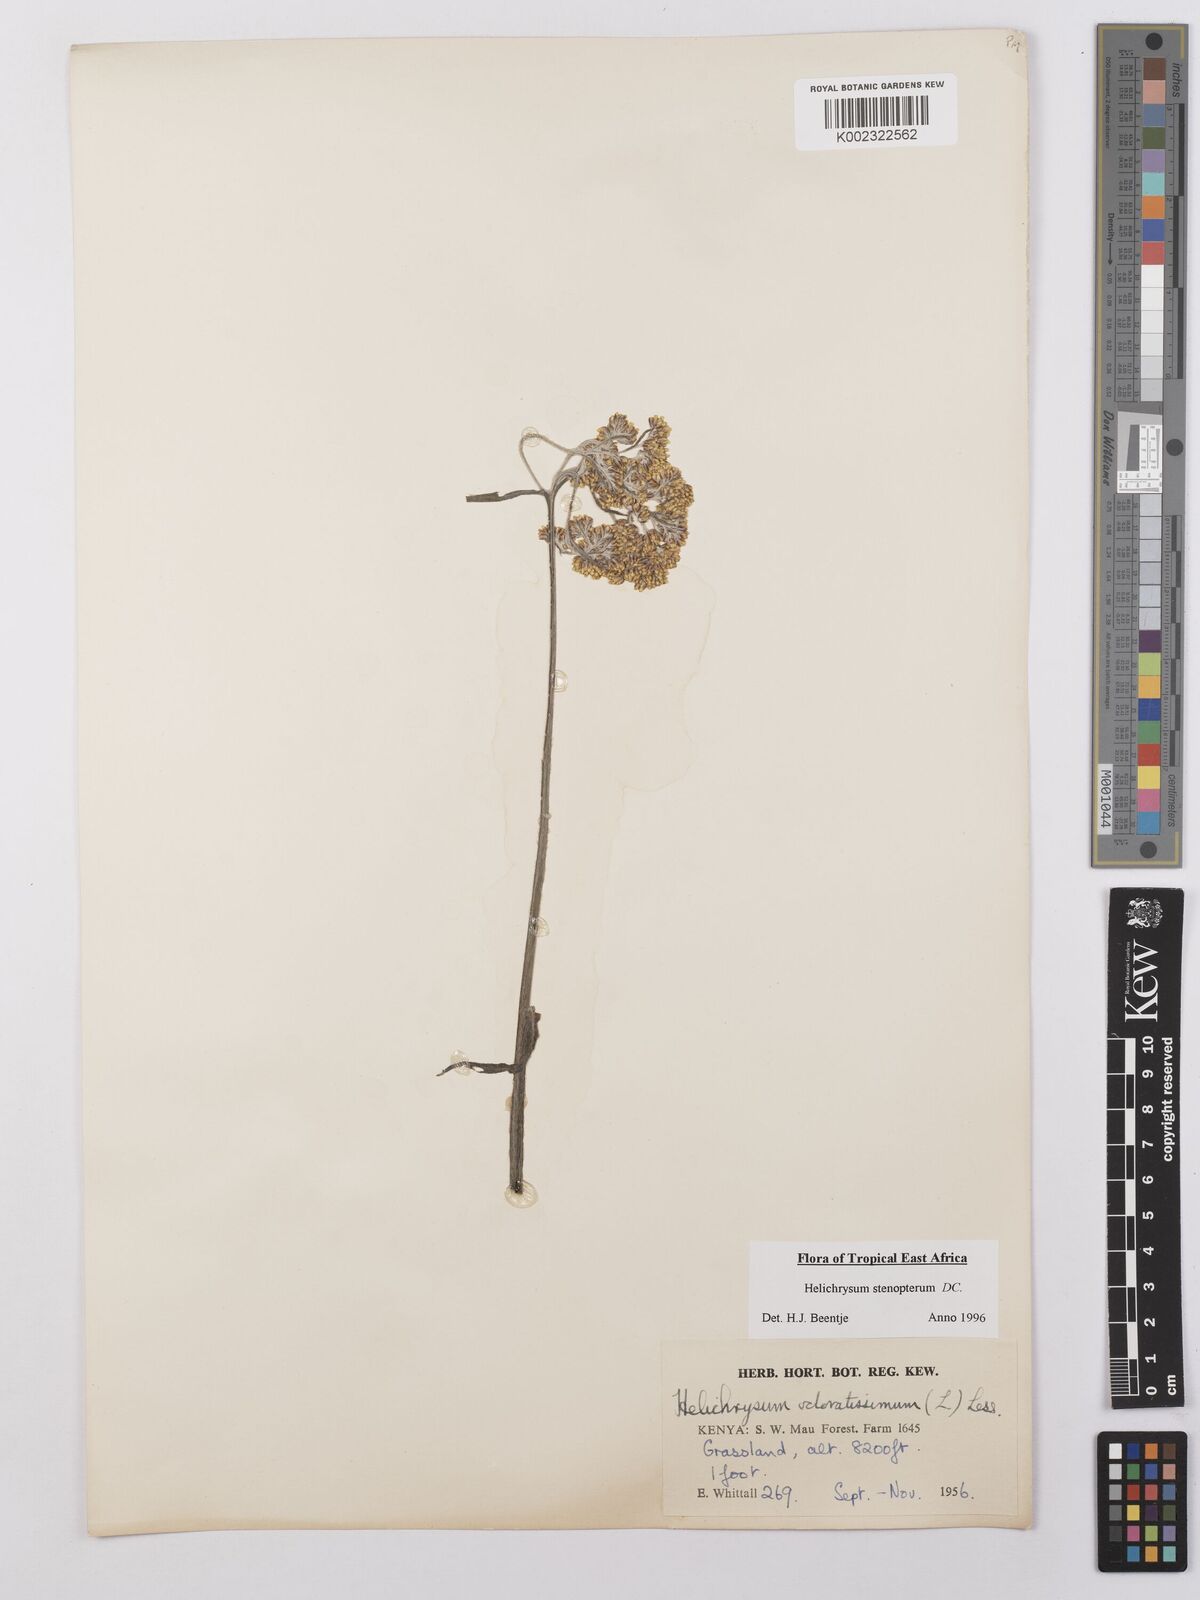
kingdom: Plantae
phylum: Tracheophyta
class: Magnoliopsida
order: Asterales
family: Asteraceae
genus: Helichrysum
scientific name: Helichrysum stenopterum
